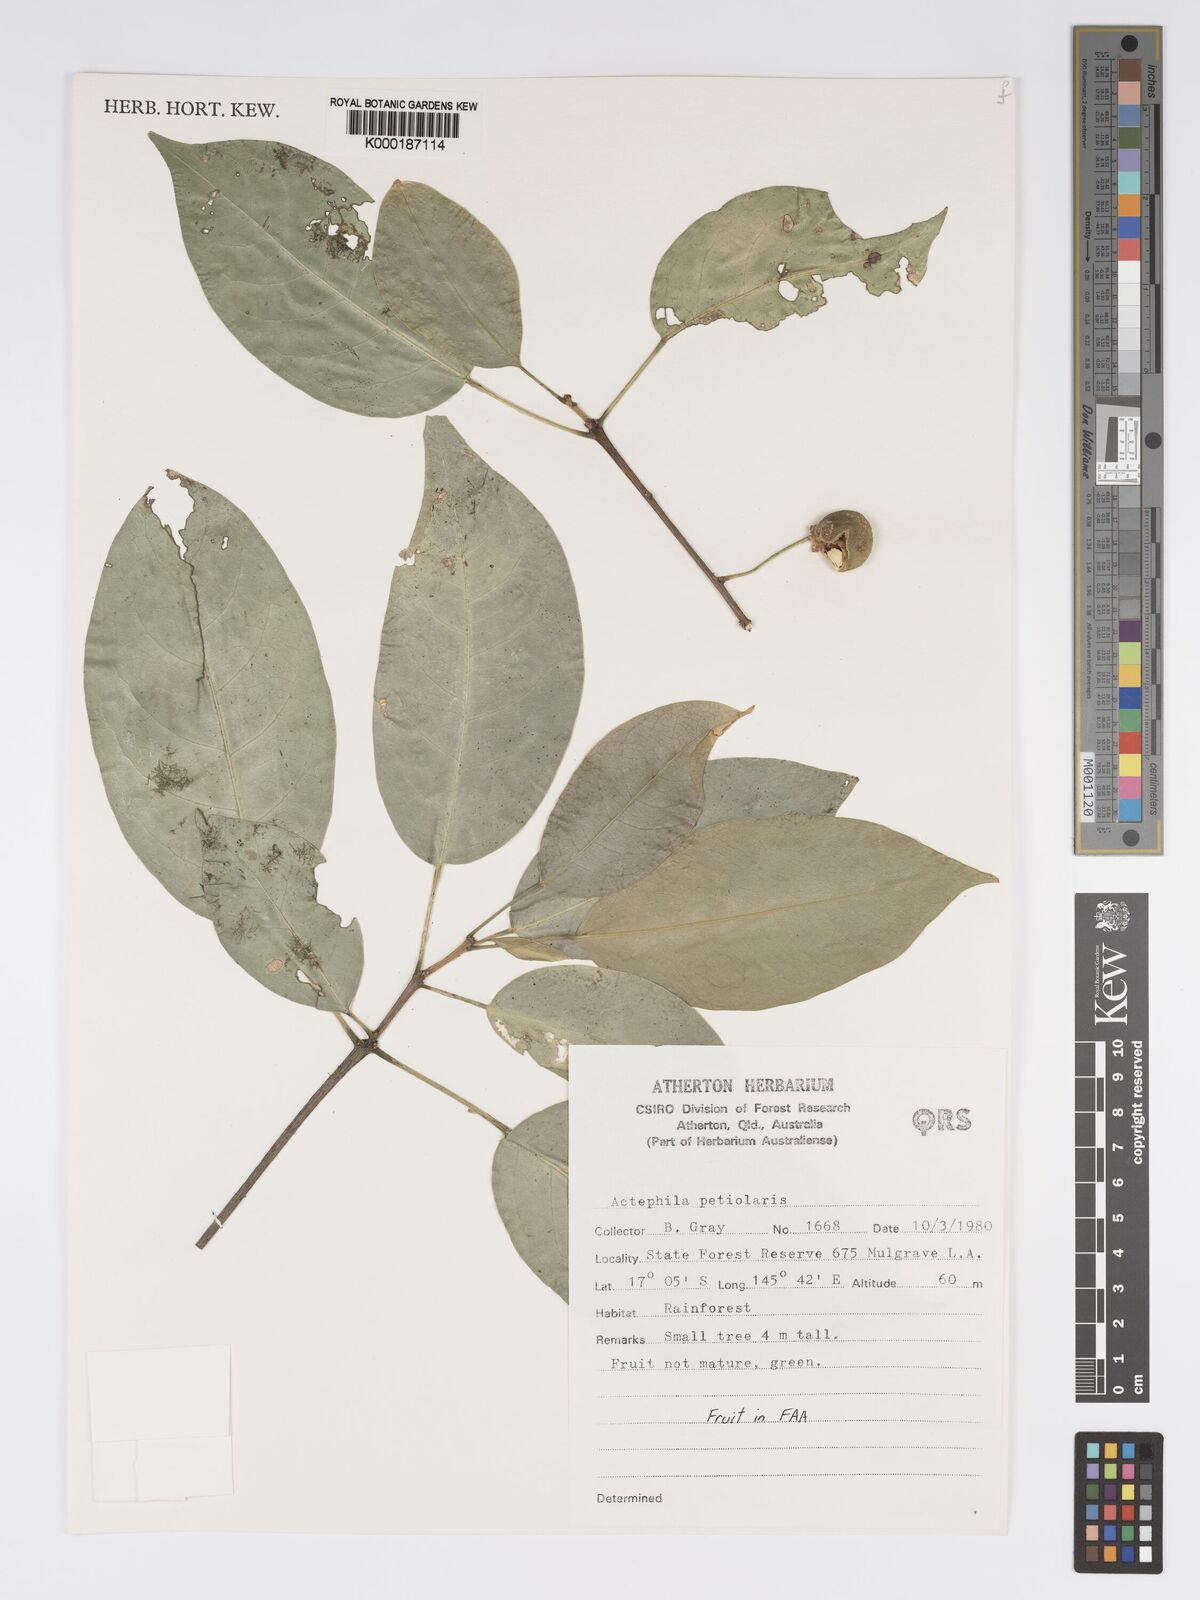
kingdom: Plantae
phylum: Tracheophyta
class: Magnoliopsida
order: Malpighiales
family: Phyllanthaceae
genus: Actephila
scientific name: Actephila lindleyi
